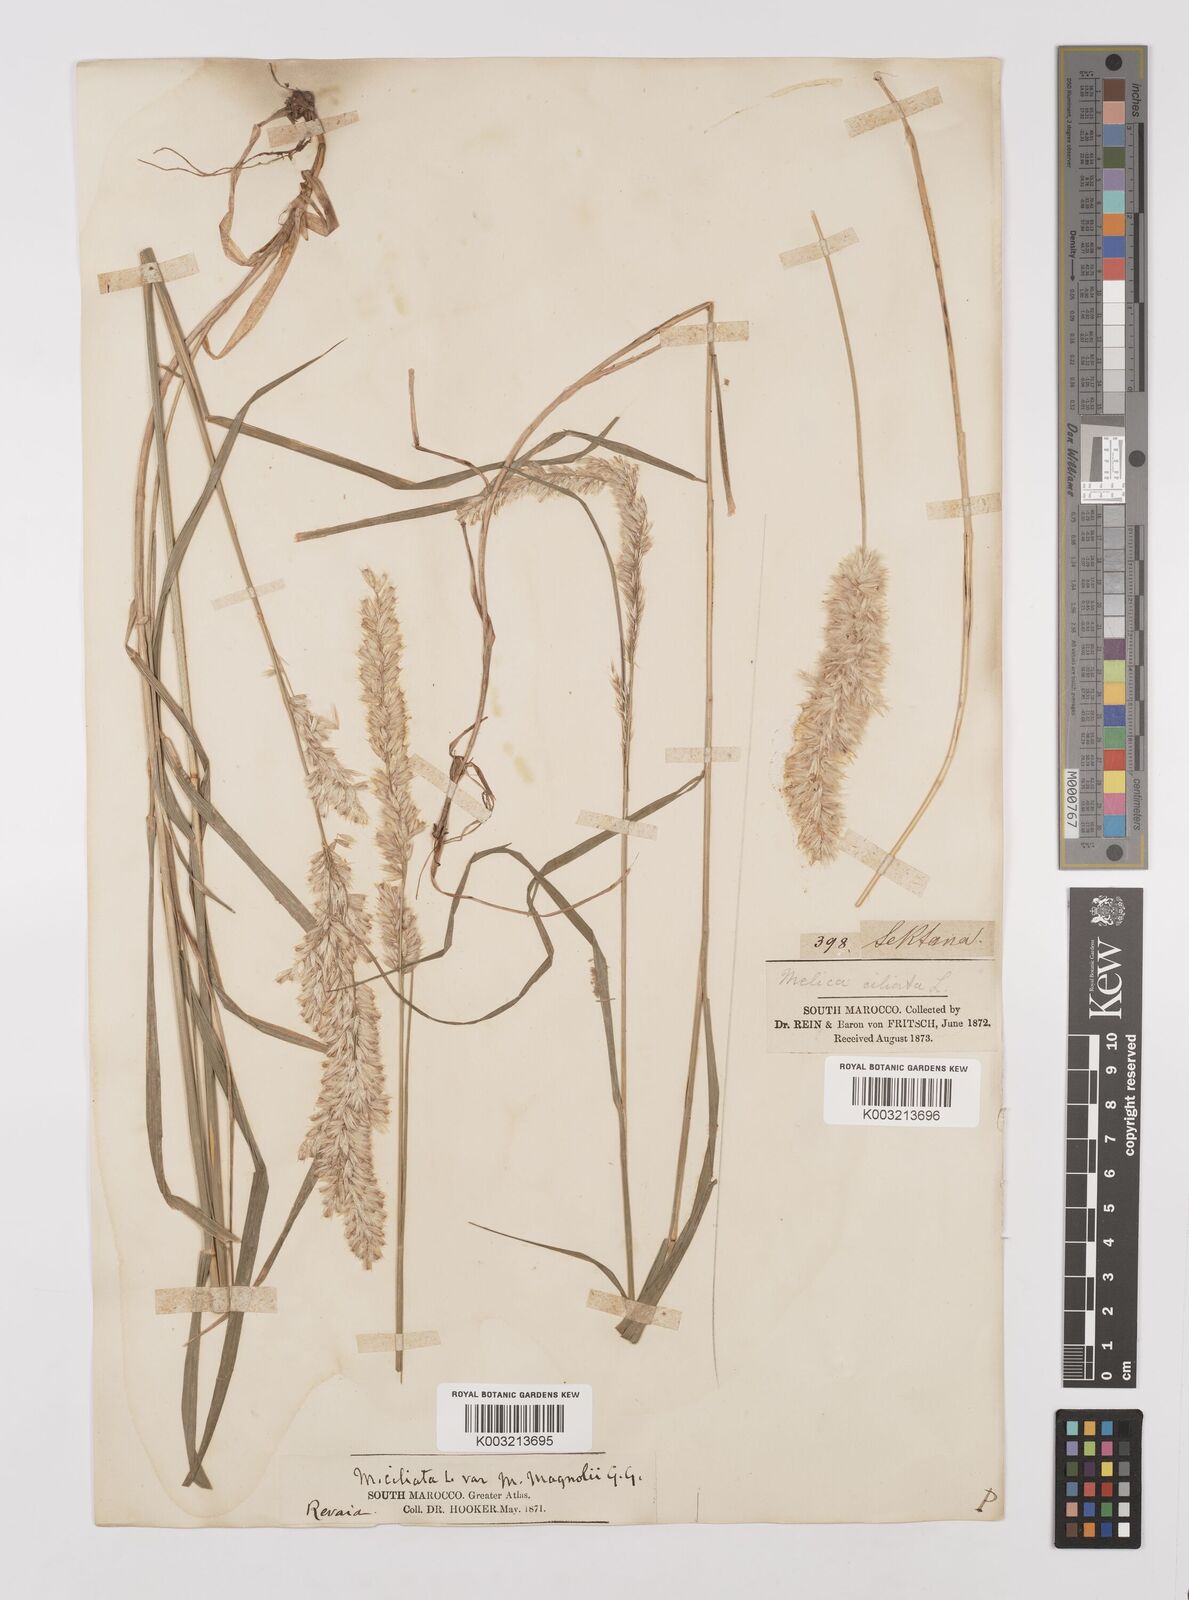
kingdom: Plantae
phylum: Tracheophyta
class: Liliopsida
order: Poales
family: Poaceae
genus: Melica
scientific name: Melica ciliata
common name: Hairy melicgrass
